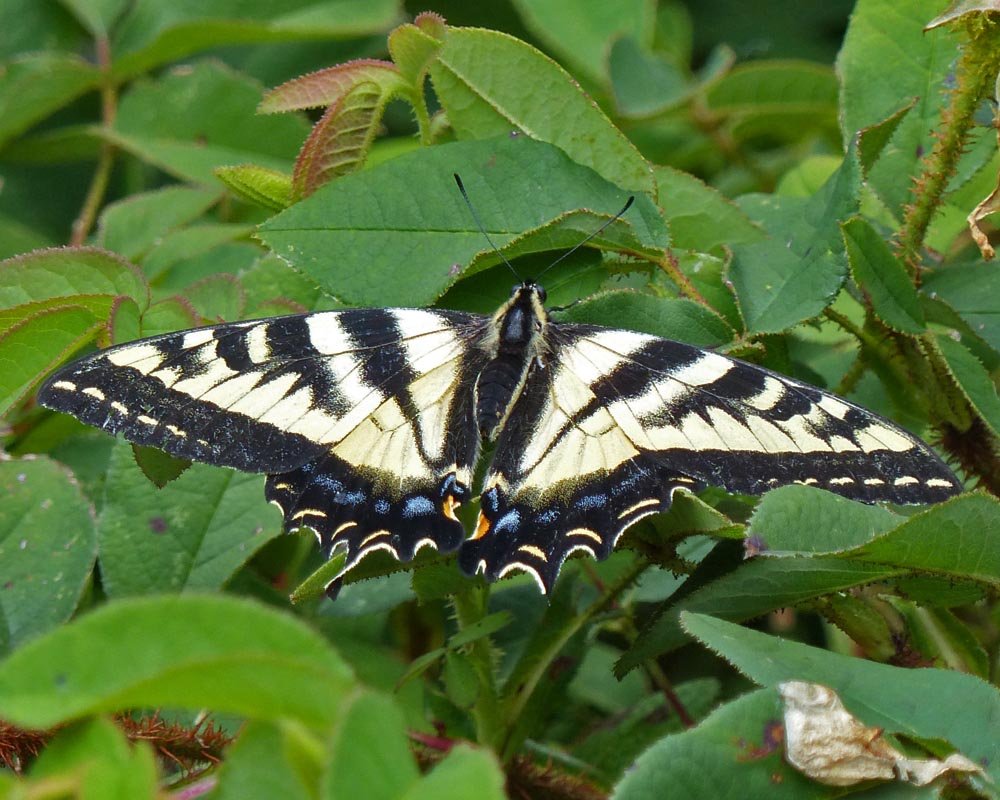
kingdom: Animalia
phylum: Arthropoda
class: Insecta
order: Lepidoptera
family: Papilionidae
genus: Pterourus
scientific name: Pterourus rutulus
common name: Western Tiger Swallowtail
